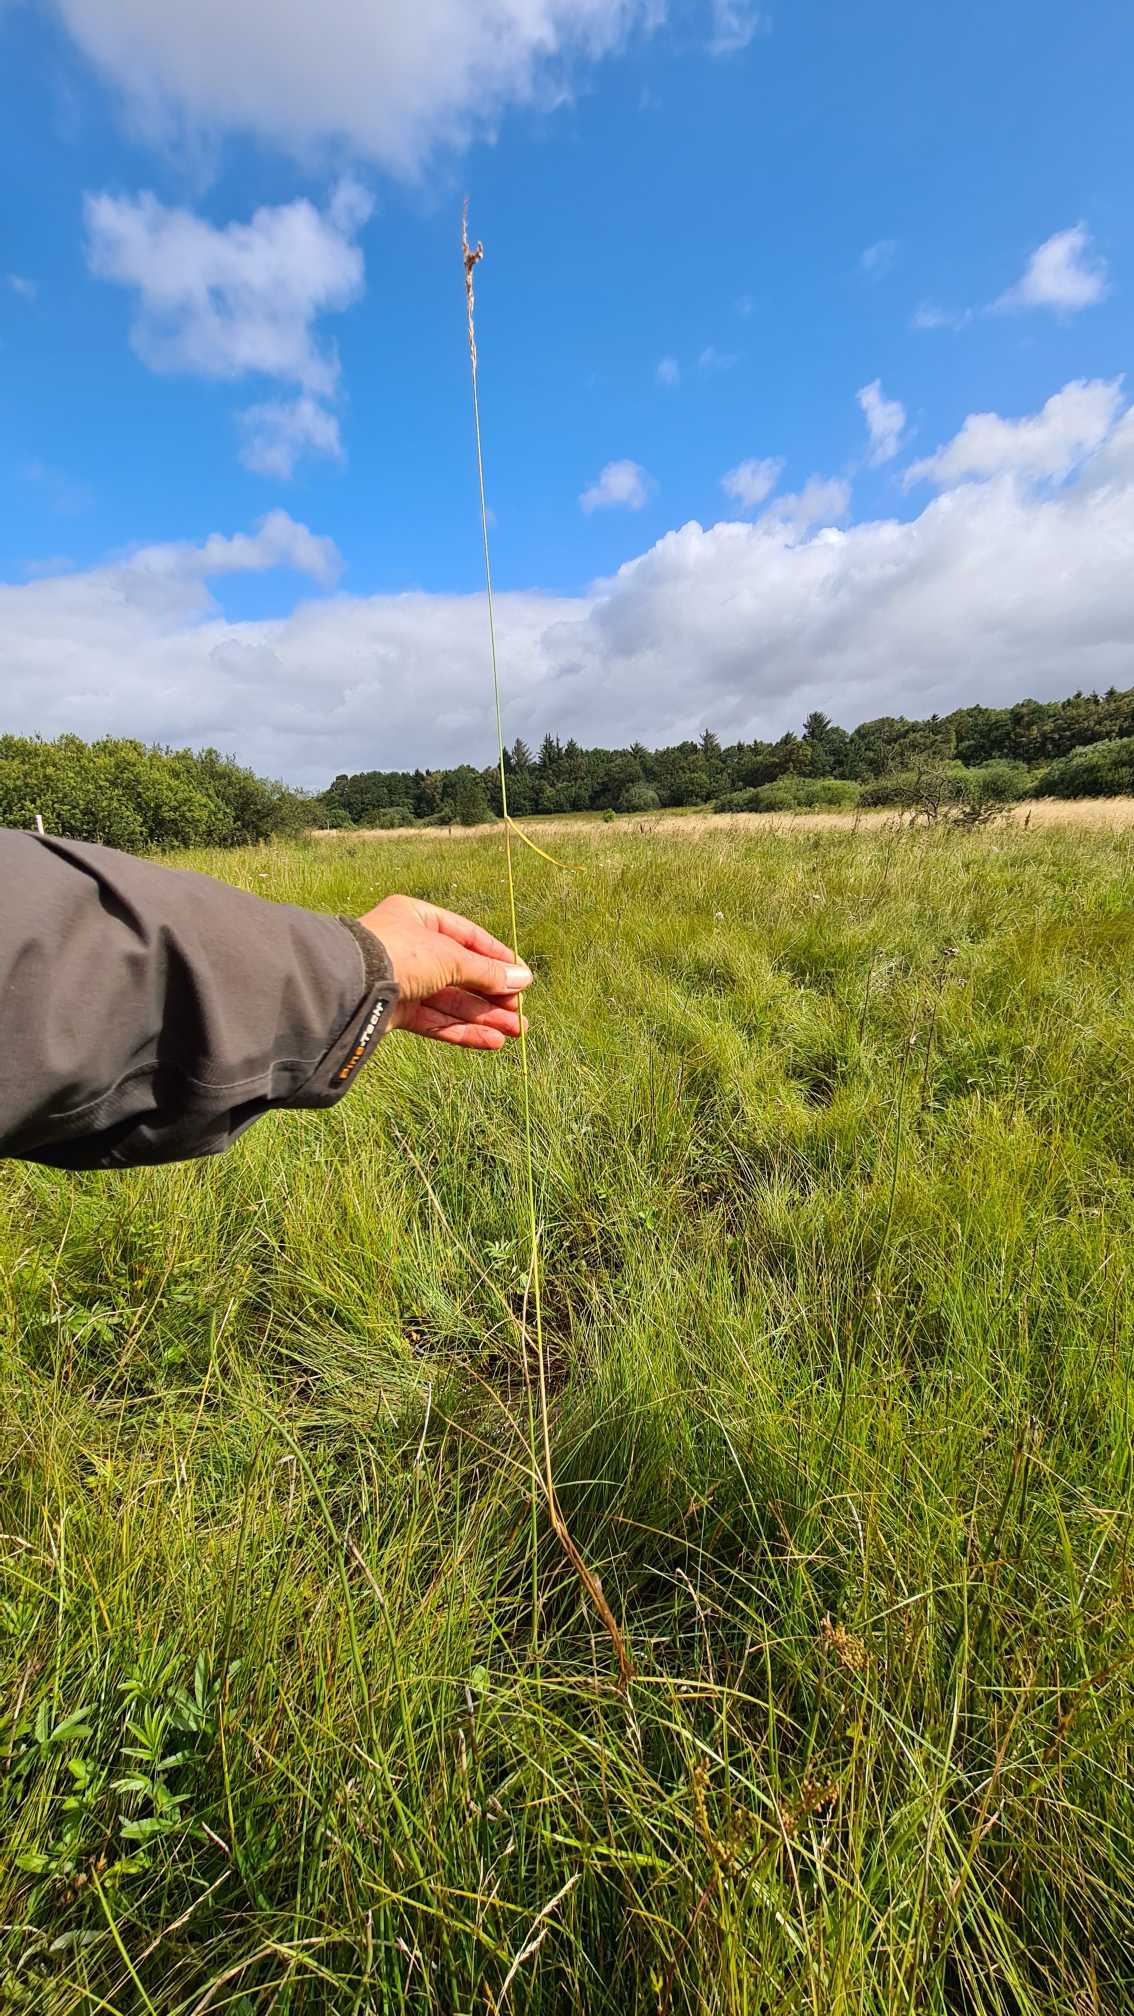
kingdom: Plantae
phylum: Tracheophyta
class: Liliopsida
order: Poales
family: Poaceae
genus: Achnatherum
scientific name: Achnatherum calamagrostis
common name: Stivtoppet rørhvene
